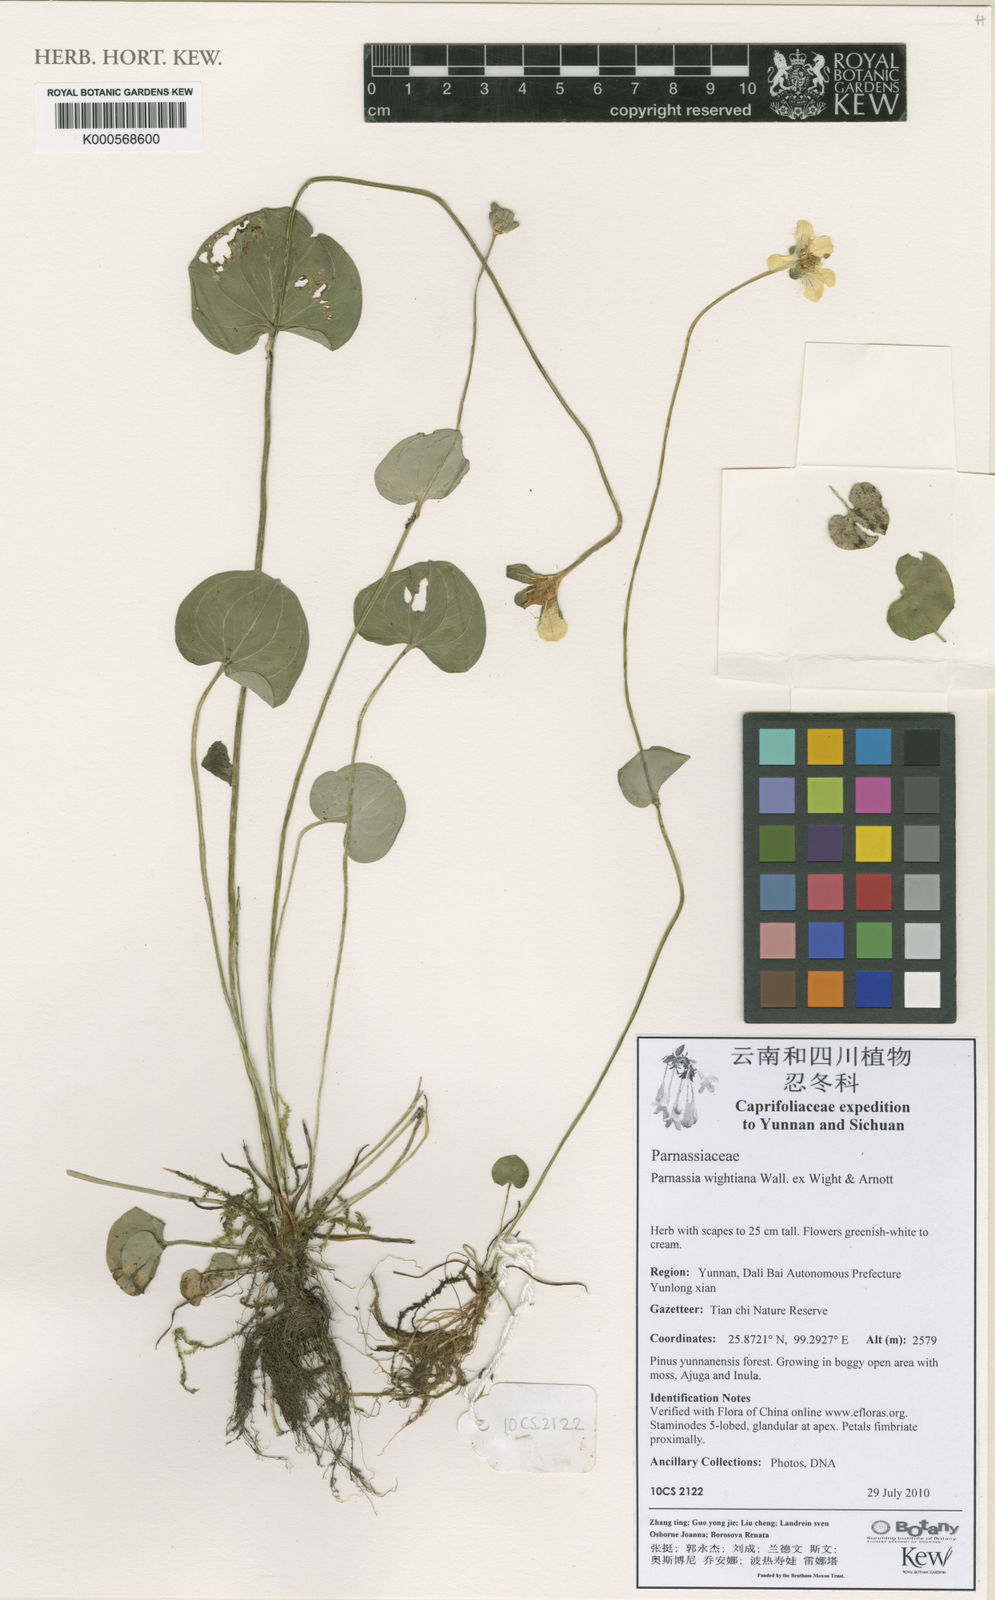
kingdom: Plantae
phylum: Tracheophyta
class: Magnoliopsida
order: Celastrales
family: Parnassiaceae
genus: Parnassia
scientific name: Parnassia wightiana
